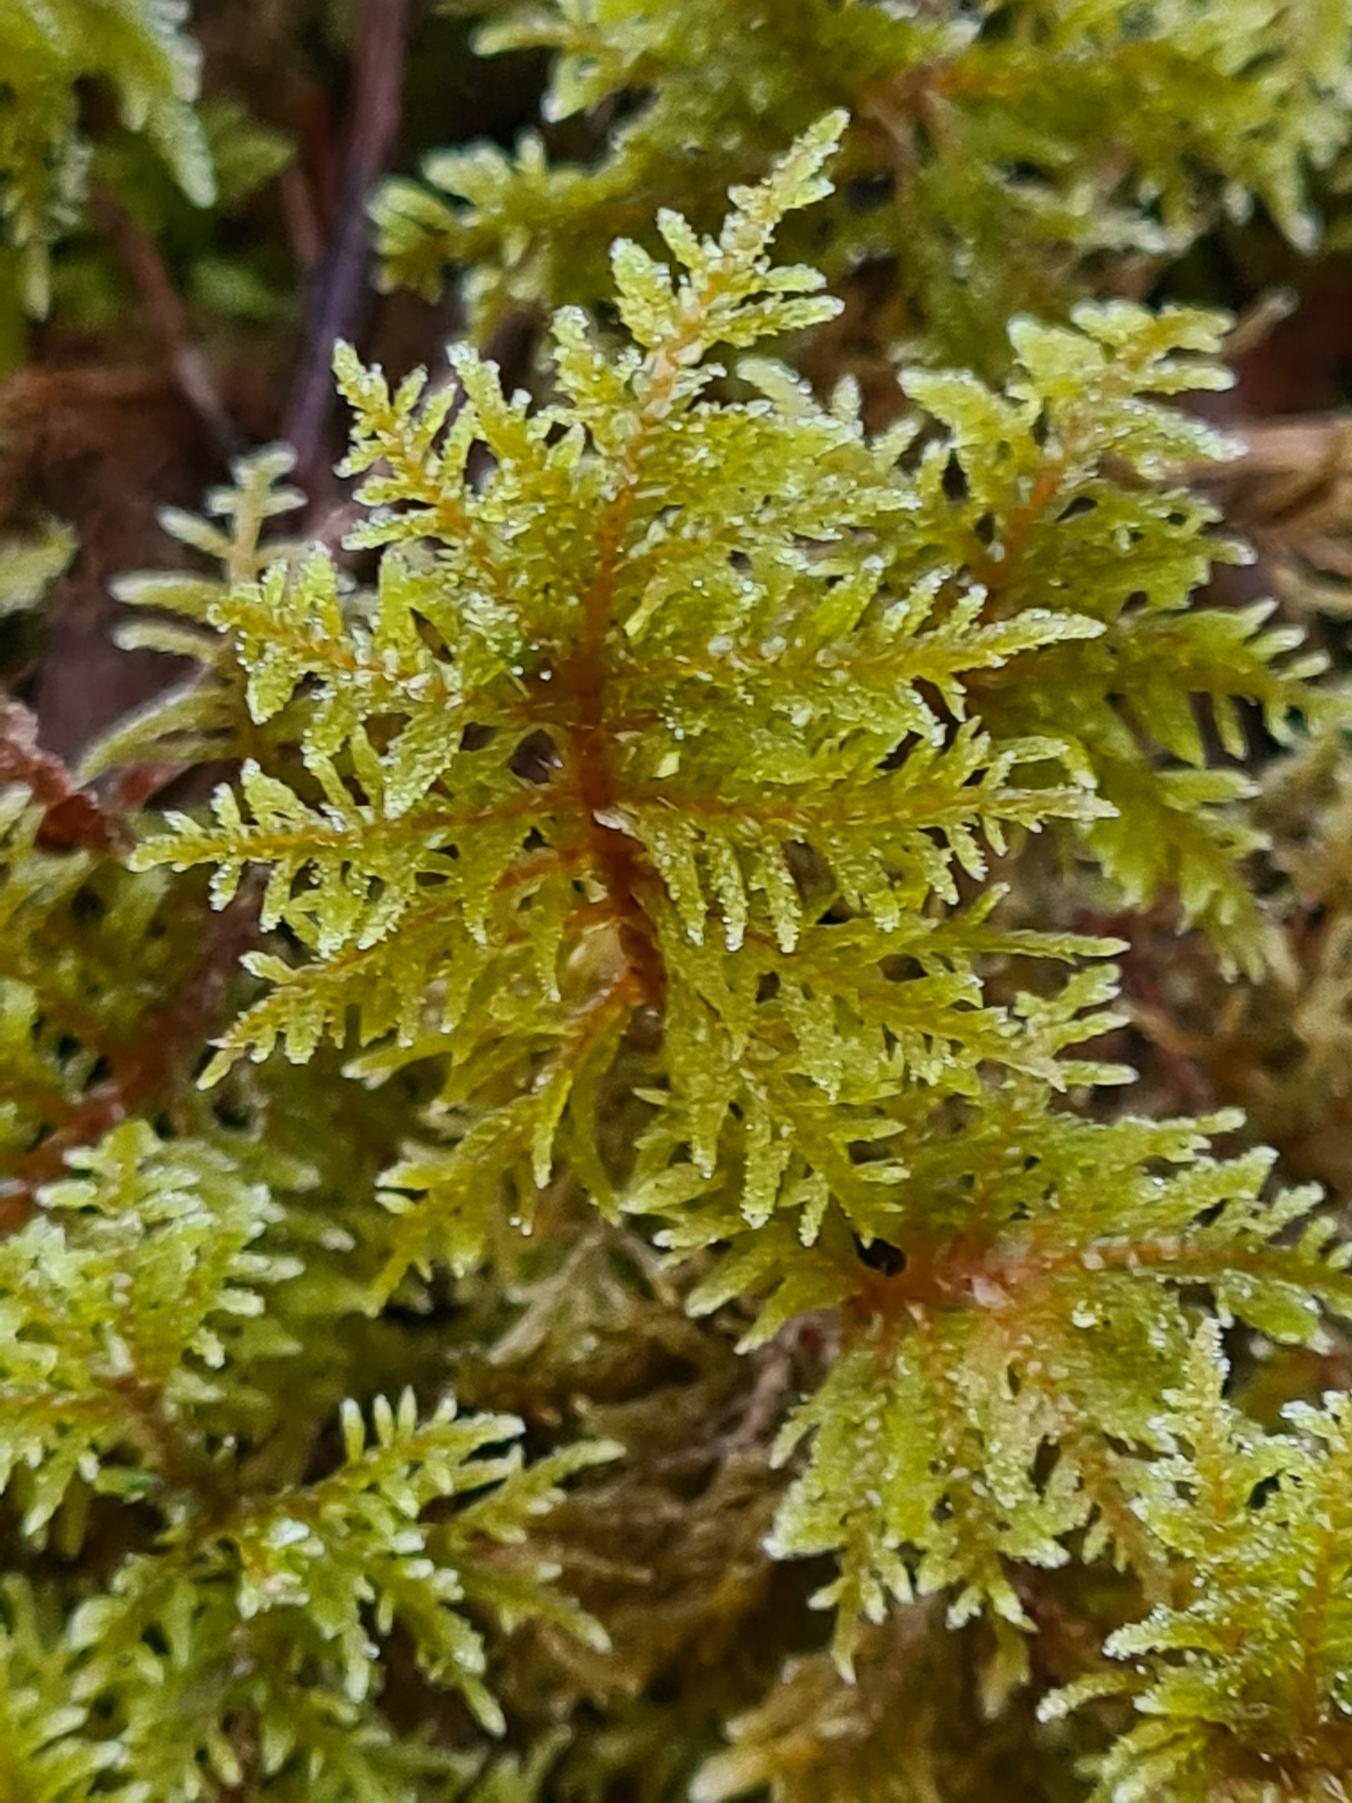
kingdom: Plantae
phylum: Bryophyta
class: Bryopsida
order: Hypnales
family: Hylocomiaceae
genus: Hylocomium
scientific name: Hylocomium splendens
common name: Almindelig etagemos
